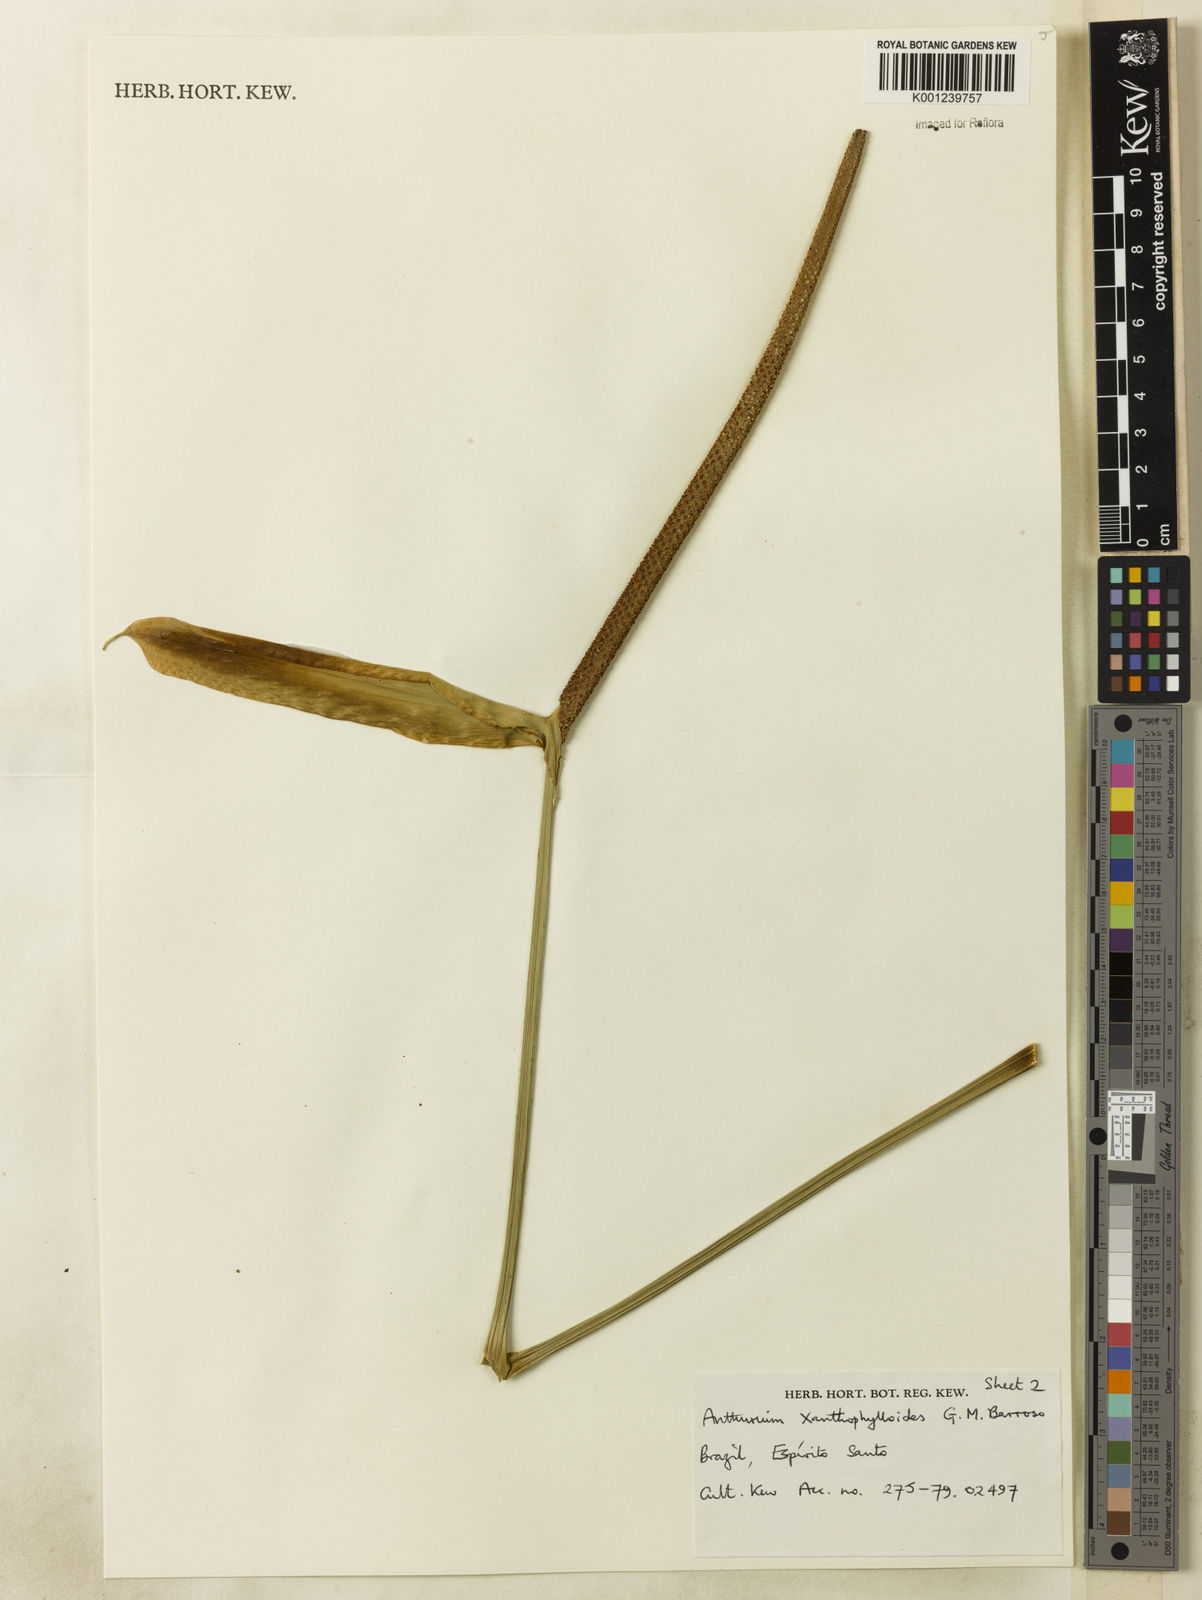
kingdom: Plantae
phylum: Tracheophyta
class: Liliopsida
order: Alismatales
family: Araceae
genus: Anthurium
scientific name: Anthurium xanthophylloides
